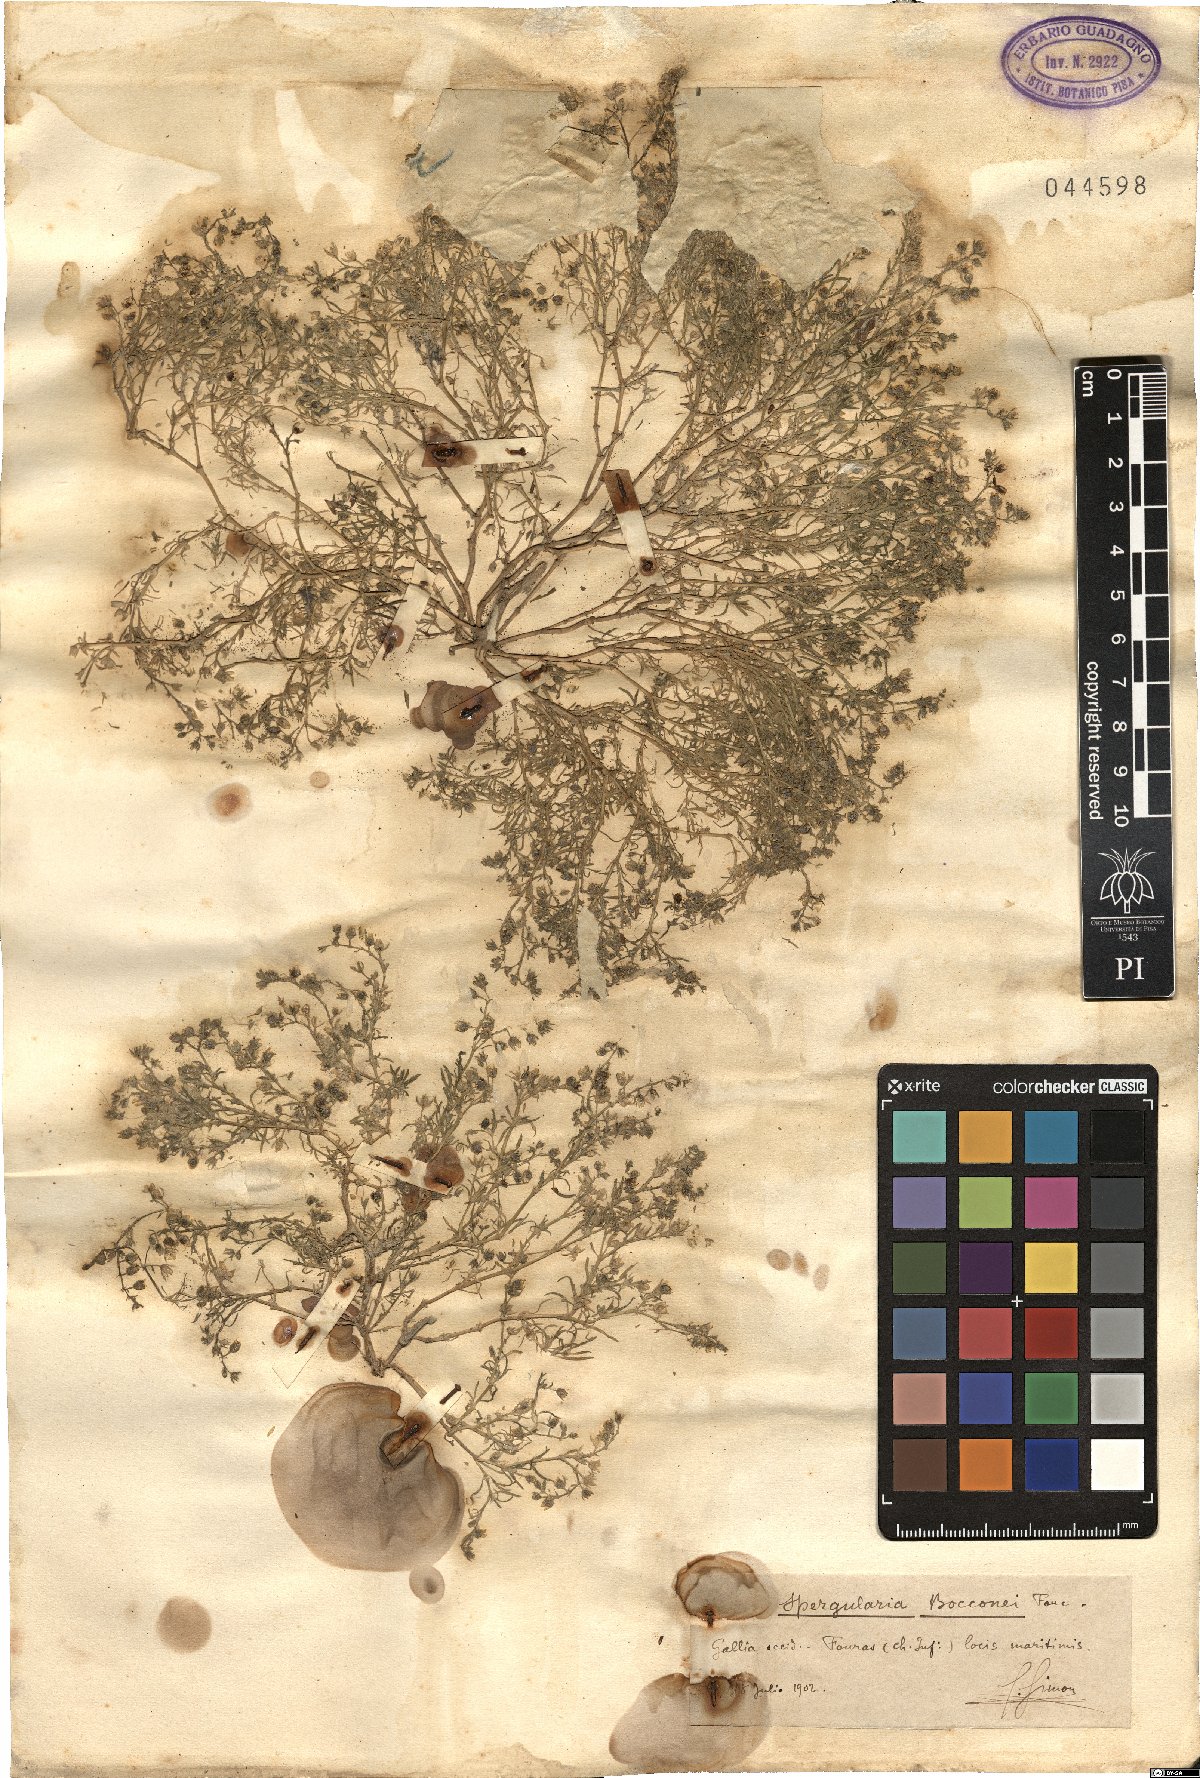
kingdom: Plantae
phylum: Tracheophyta
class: Magnoliopsida
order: Caryophyllales
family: Caryophyllaceae
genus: Spergularia
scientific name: Spergularia bocconei
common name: Greek sea-spurrey
